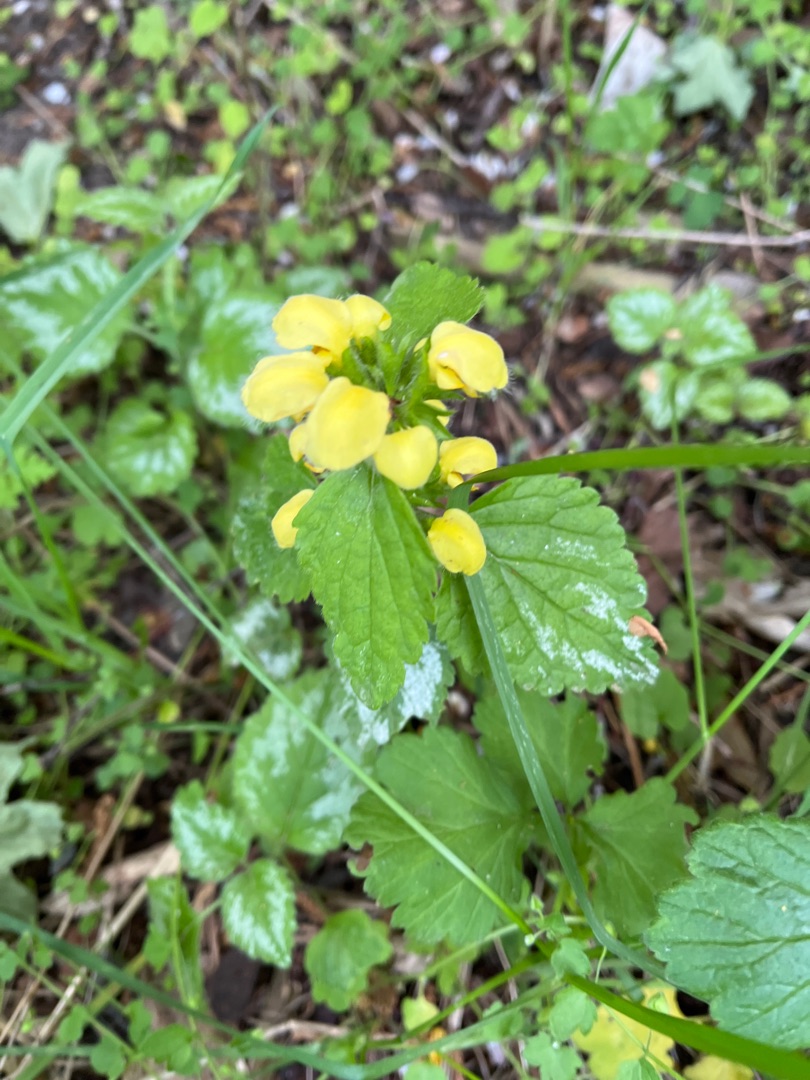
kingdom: Plantae
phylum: Tracheophyta
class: Magnoliopsida
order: Lamiales
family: Lamiaceae
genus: Lamium
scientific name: Lamium galeobdolon
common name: Have-guldnælde
